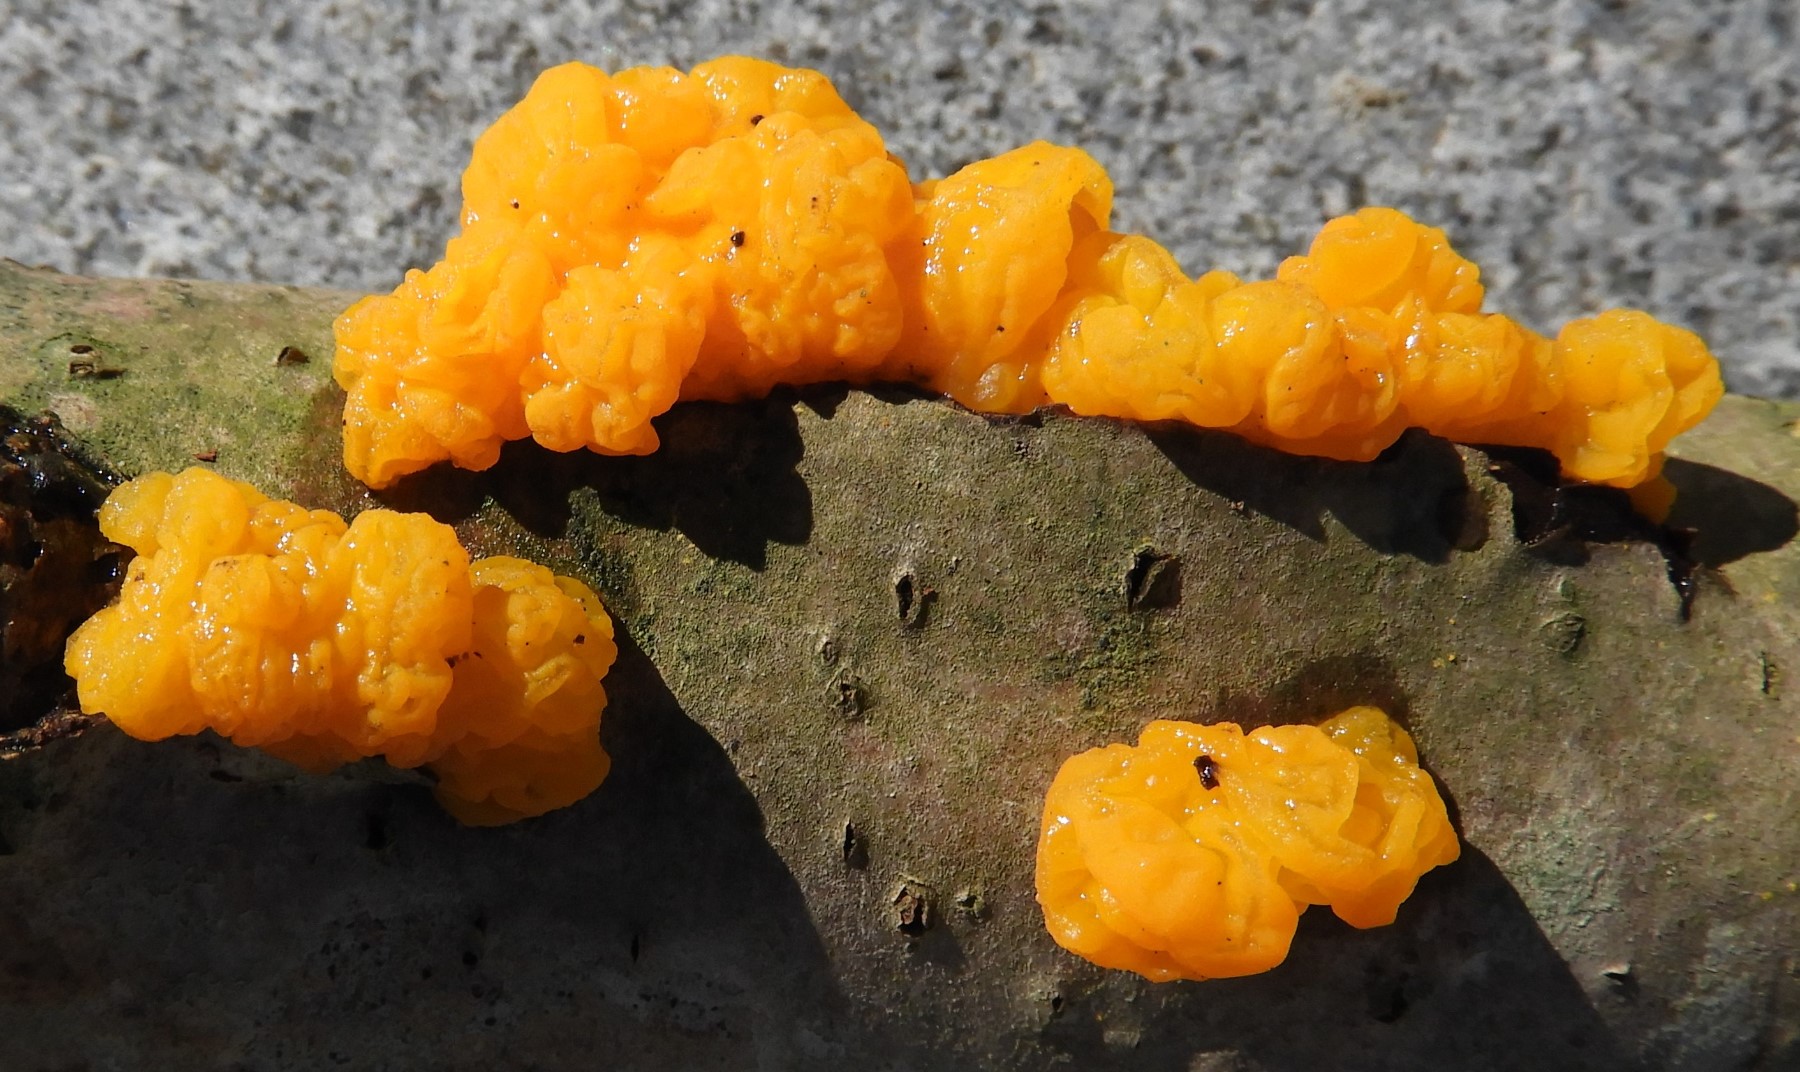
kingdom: Fungi
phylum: Basidiomycota
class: Tremellomycetes
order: Tremellales
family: Tremellaceae
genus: Tremella
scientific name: Tremella mesenterica
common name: gul bævresvamp
